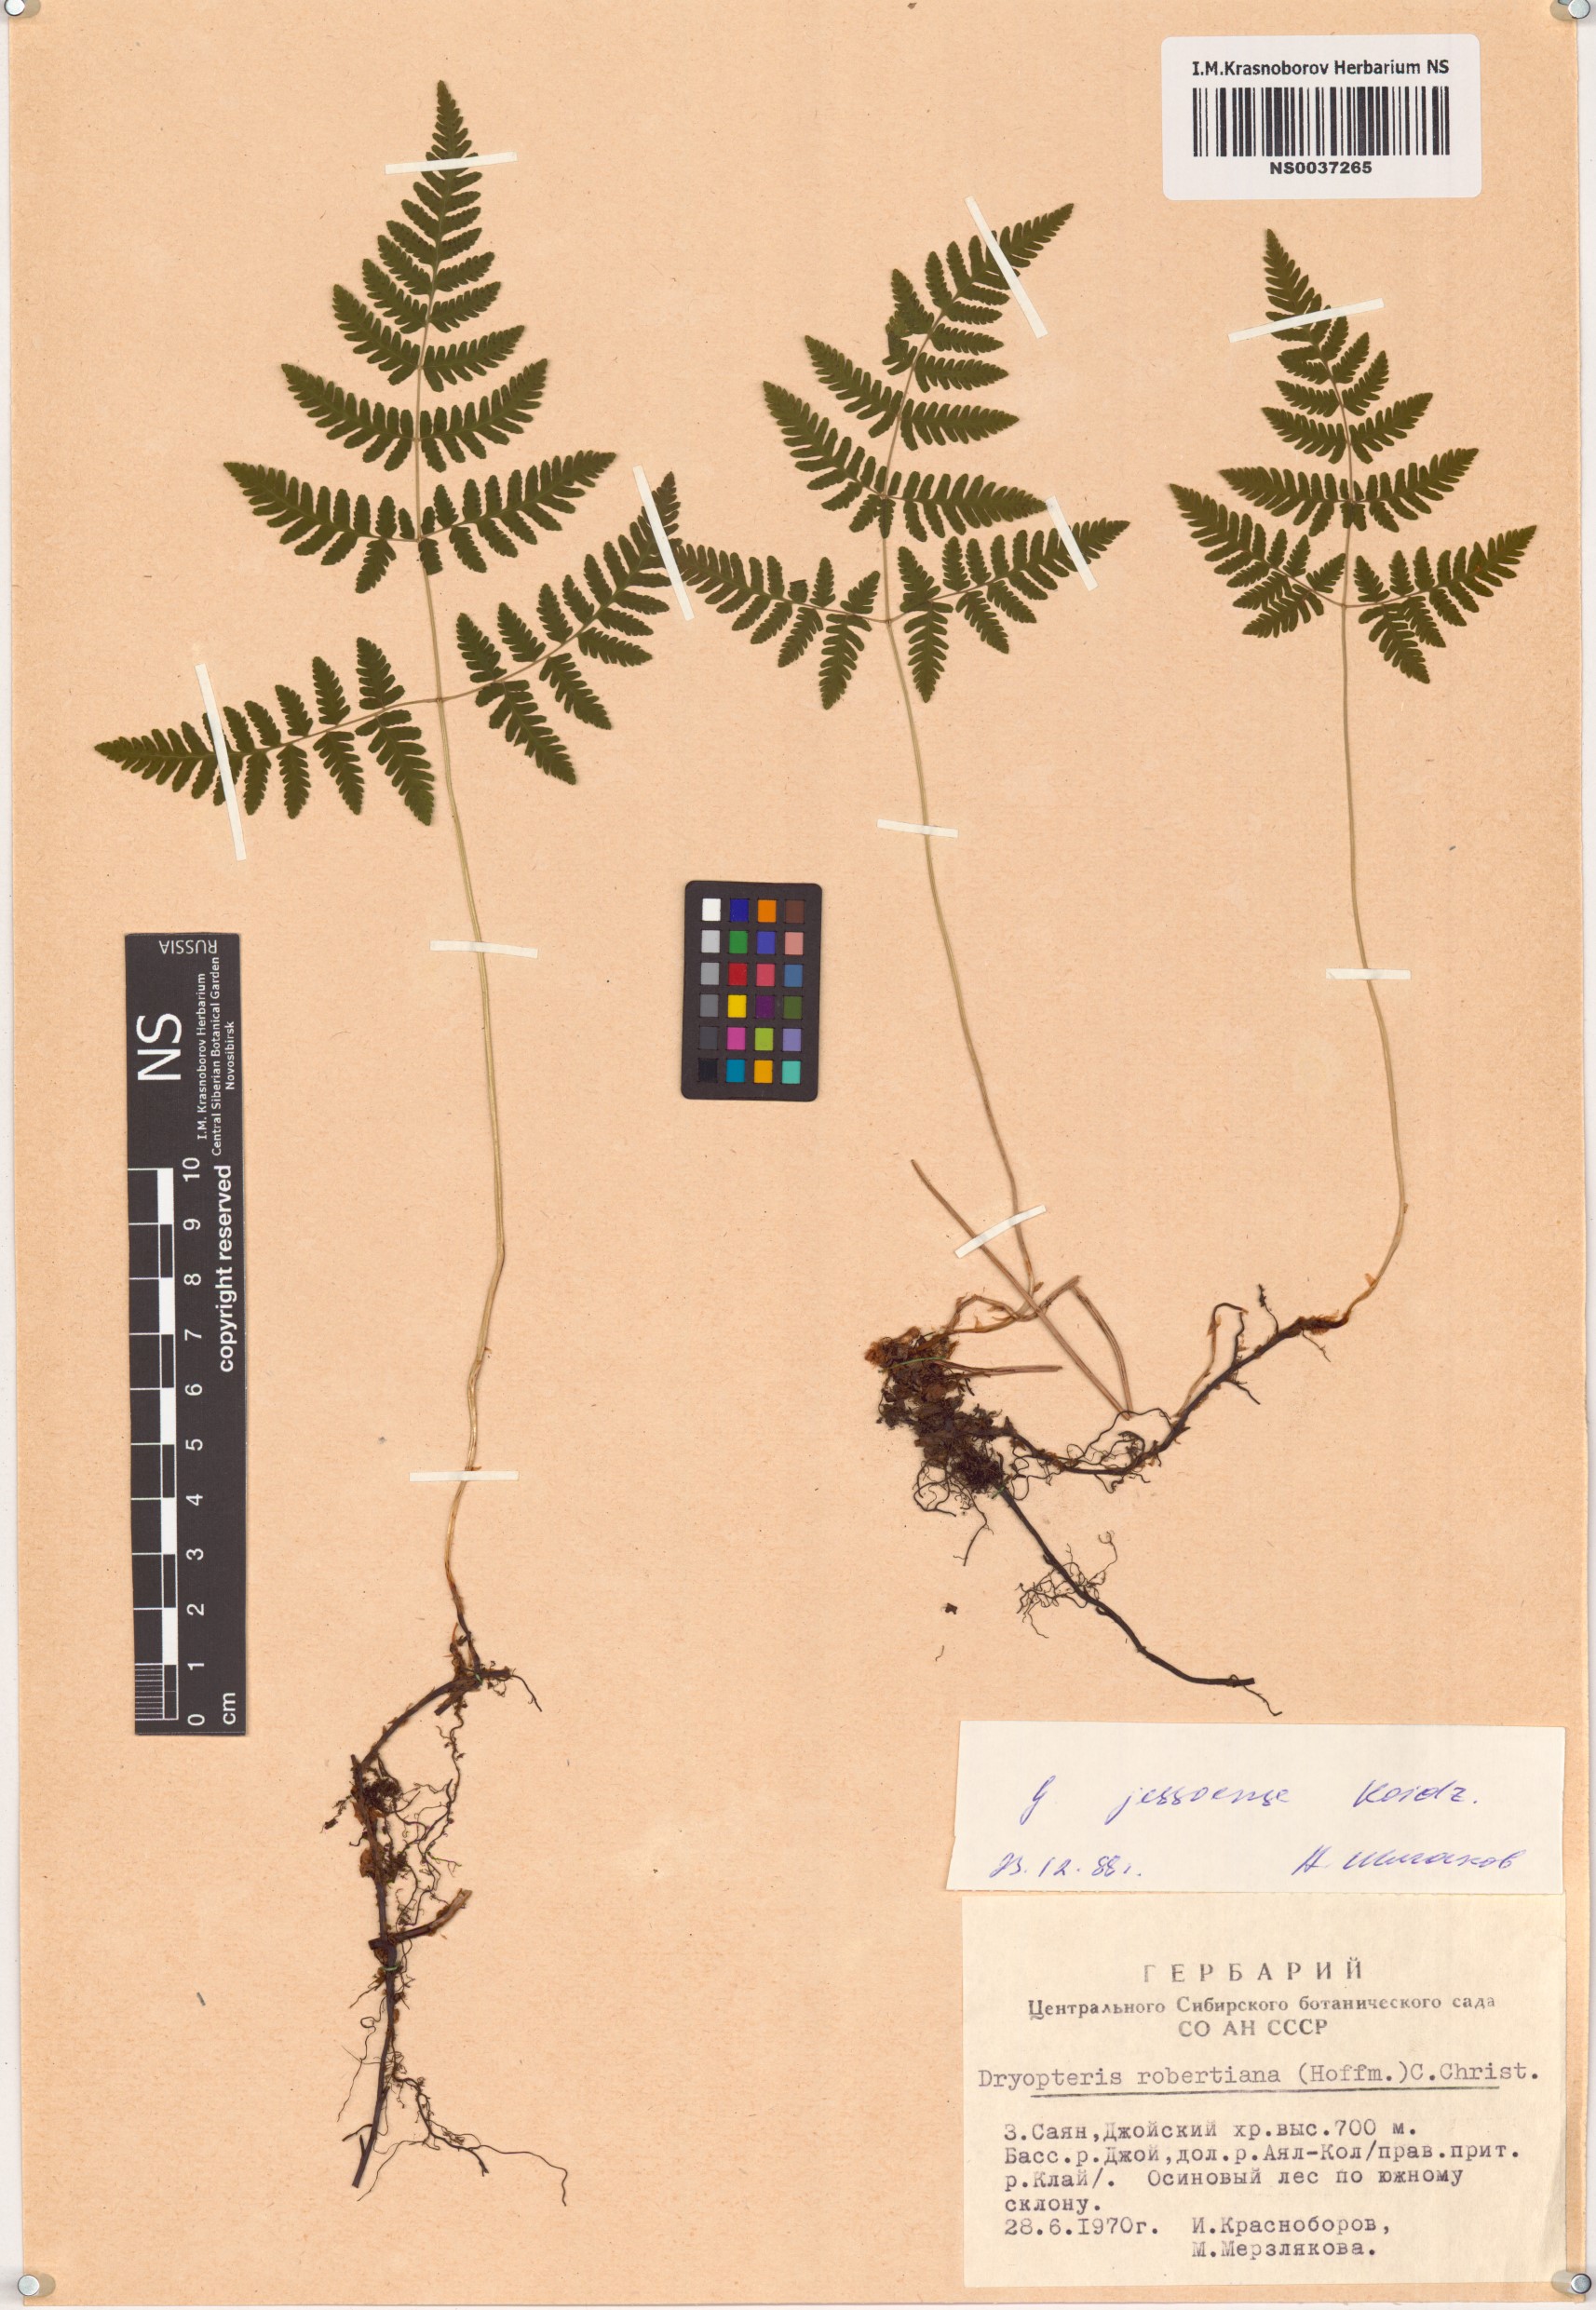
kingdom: Plantae
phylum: Tracheophyta
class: Polypodiopsida
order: Polypodiales
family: Cystopteridaceae
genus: Gymnocarpium
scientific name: Gymnocarpium jessoense
